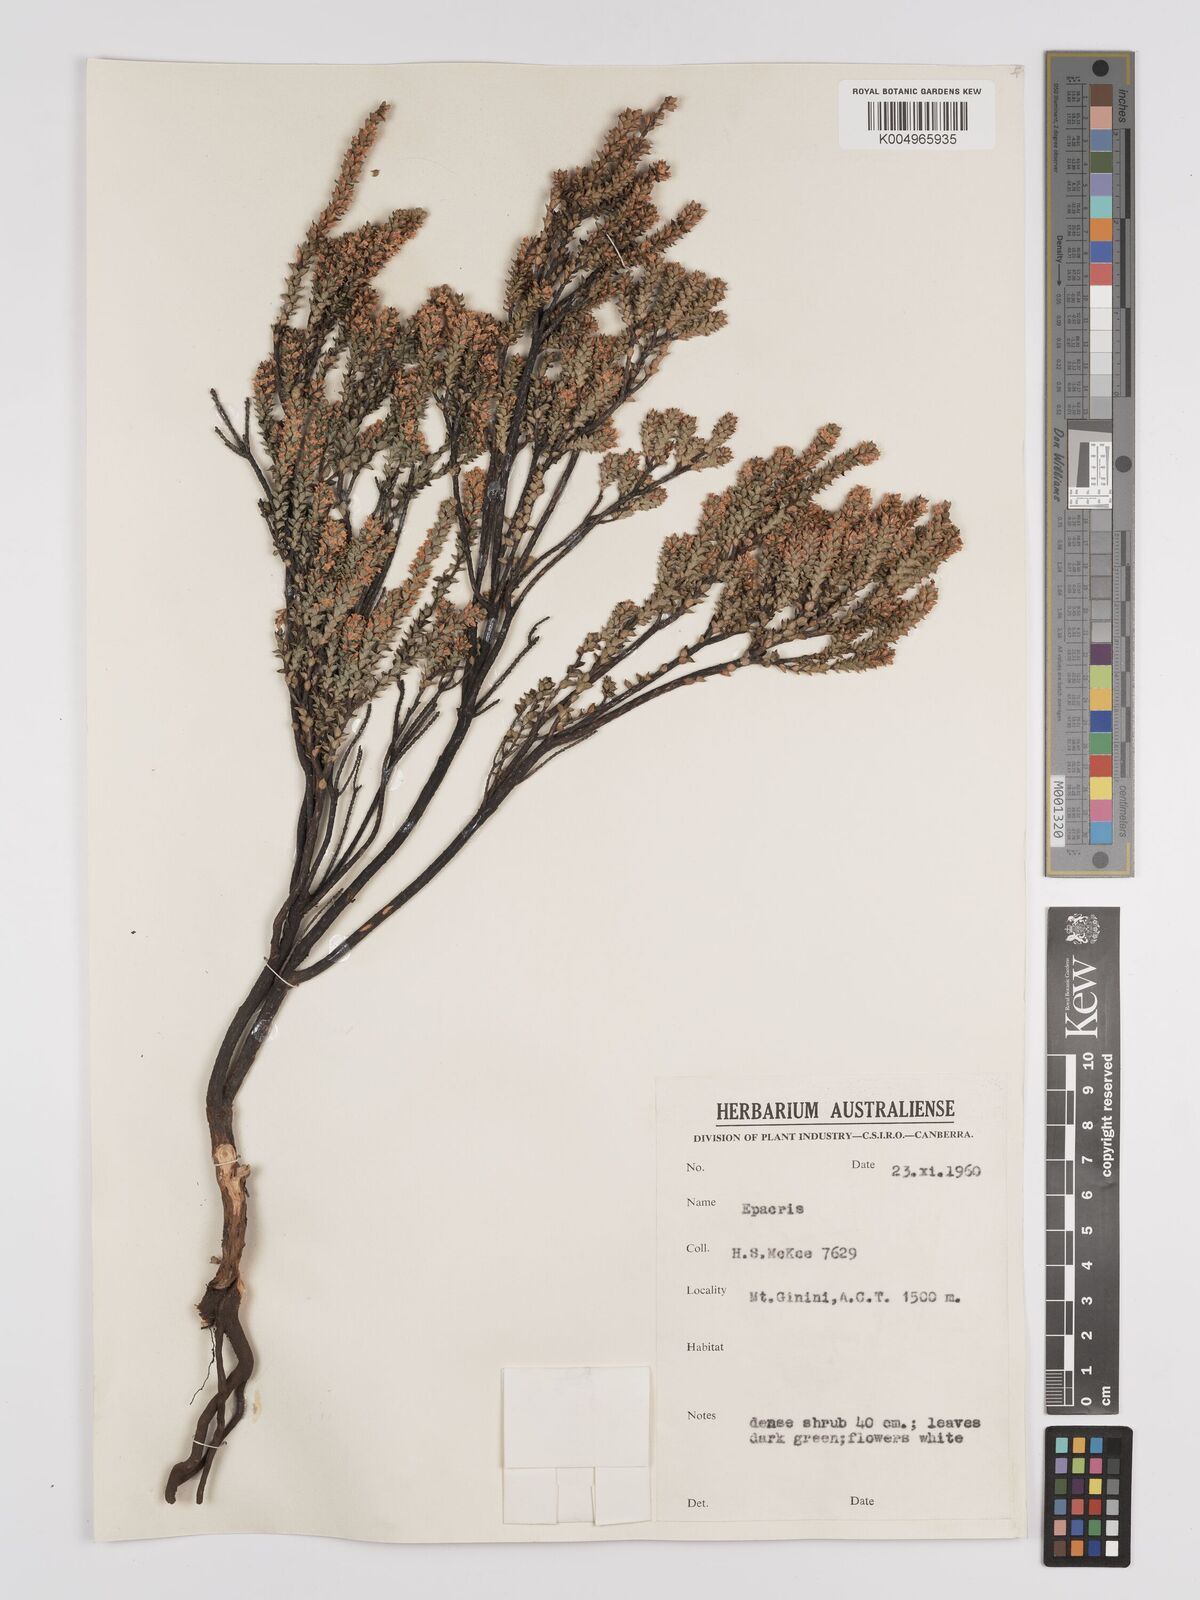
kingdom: Plantae
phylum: Tracheophyta
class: Magnoliopsida
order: Ericales
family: Ericaceae
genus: Epacris
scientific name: Epacris
